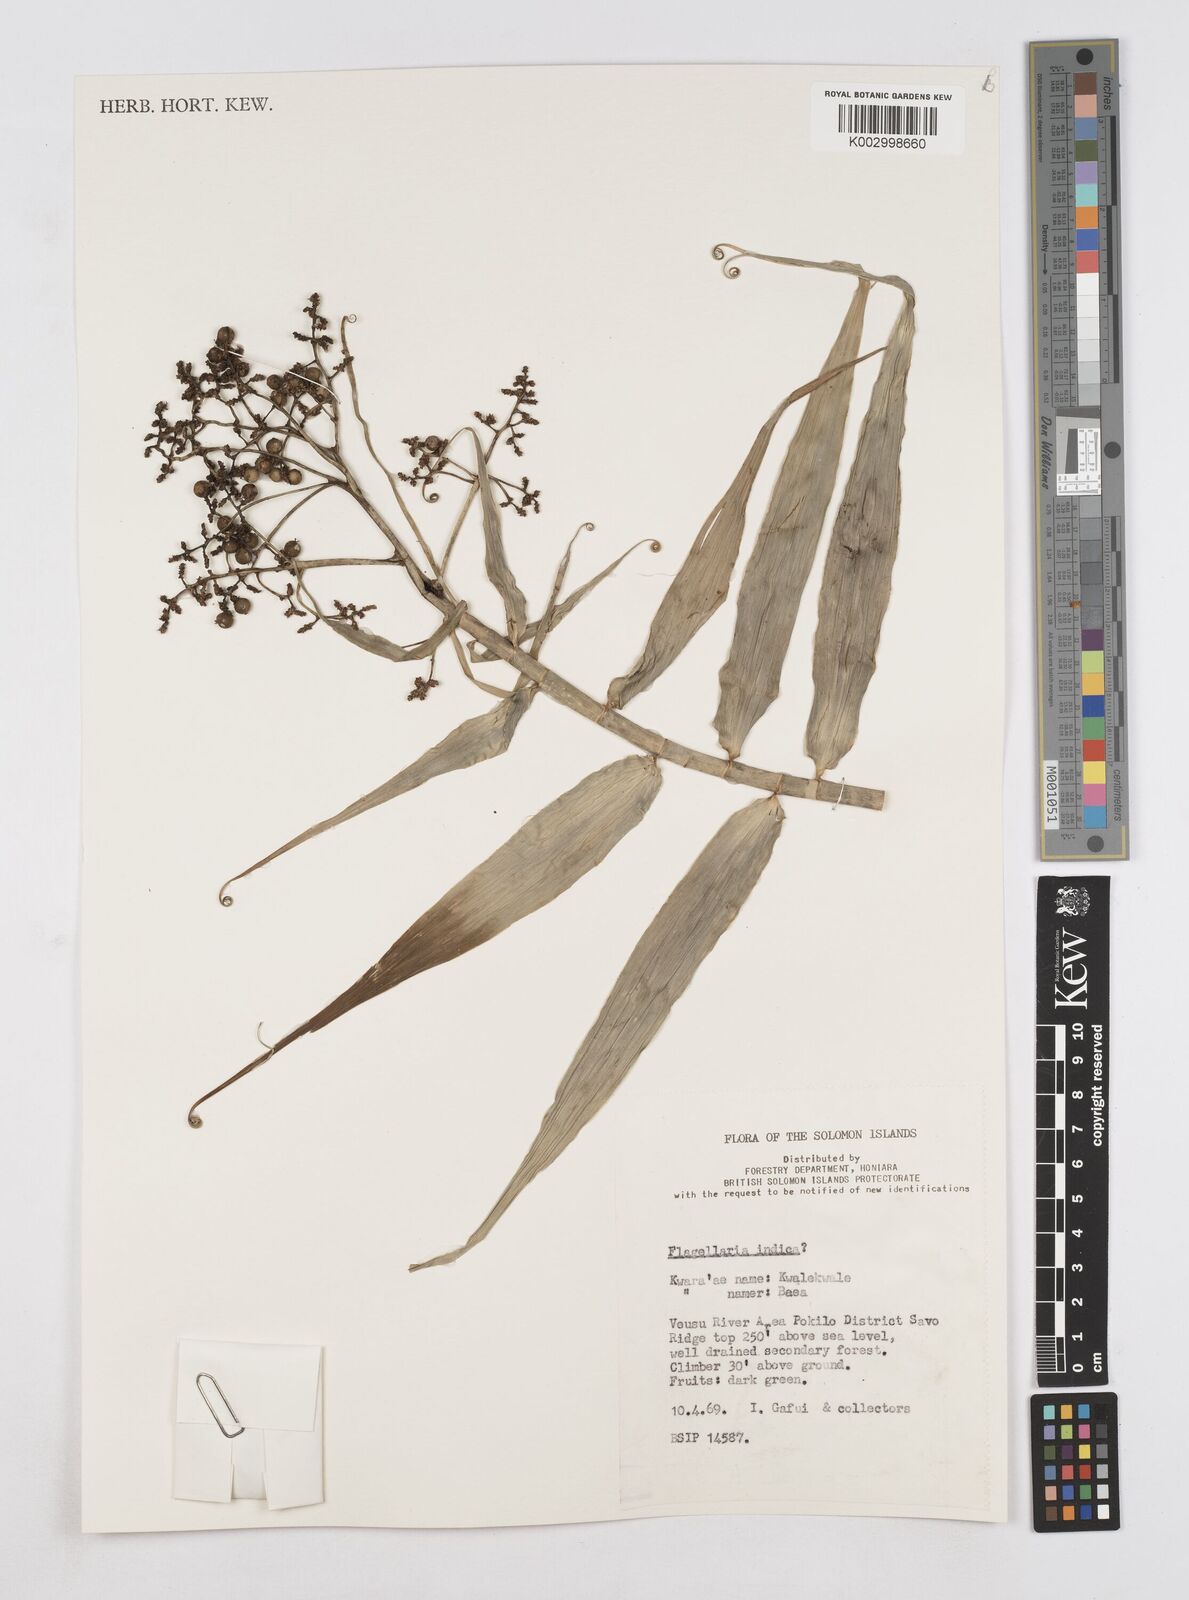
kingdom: Plantae
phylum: Tracheophyta
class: Liliopsida
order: Poales
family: Flagellariaceae
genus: Flagellaria
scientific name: Flagellaria indica
